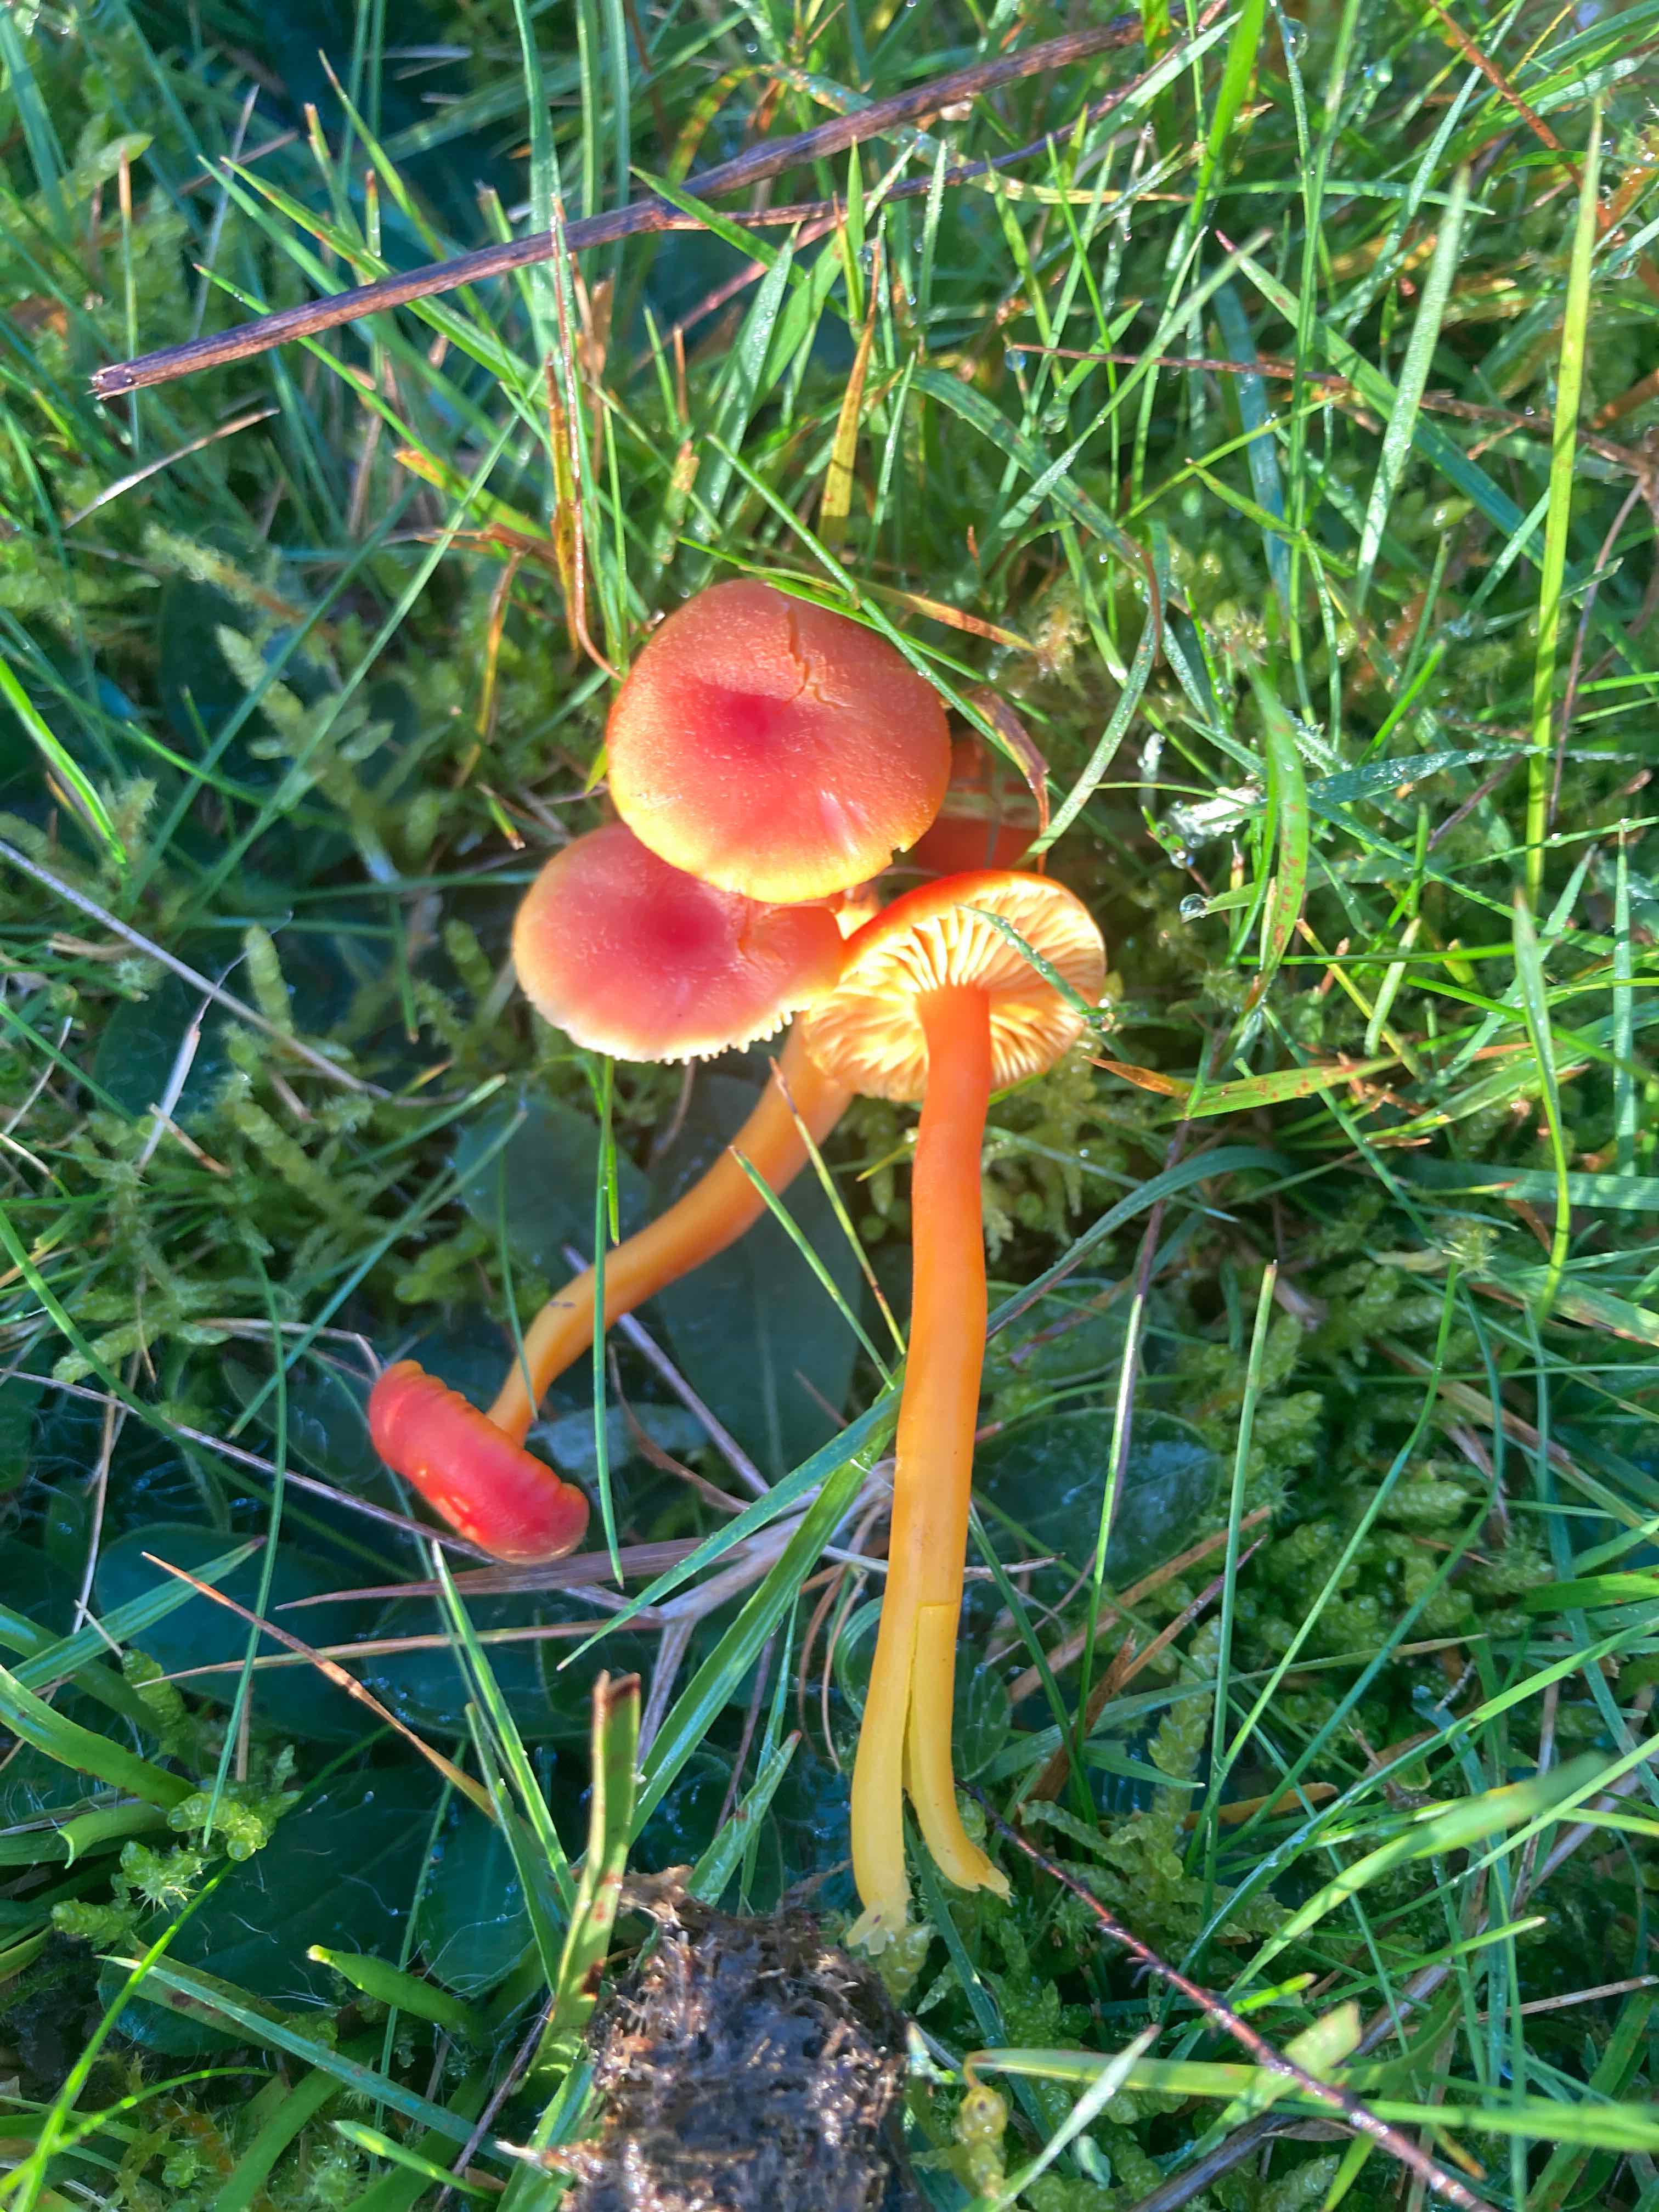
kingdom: Fungi
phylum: Basidiomycota
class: Agaricomycetes
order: Agaricales
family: Hygrophoraceae
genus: Hygrocybe
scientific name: Hygrocybe miniata
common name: mønje-vokshat
